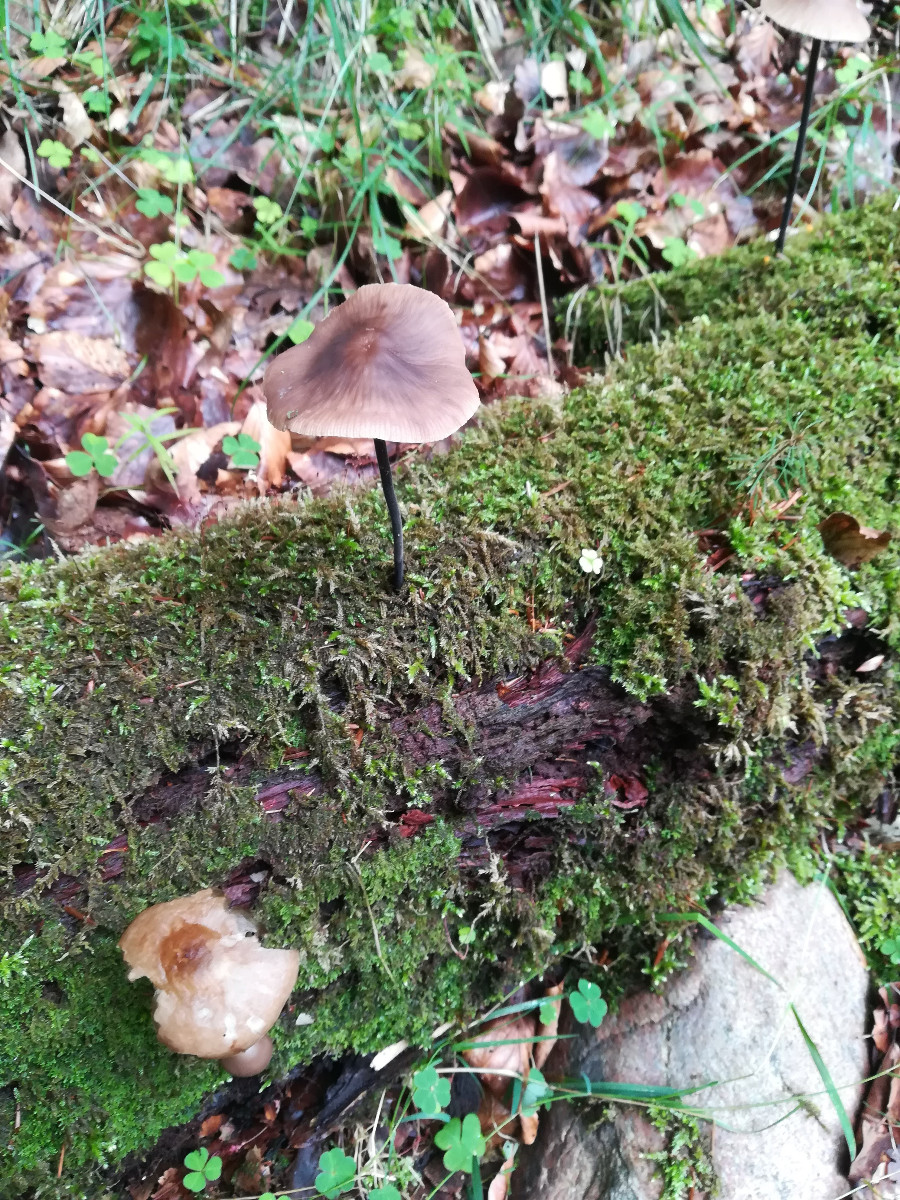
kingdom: Fungi
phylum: Basidiomycota
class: Agaricomycetes
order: Agaricales
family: Omphalotaceae
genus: Mycetinis
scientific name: Mycetinis alliaceus
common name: stor løghat
